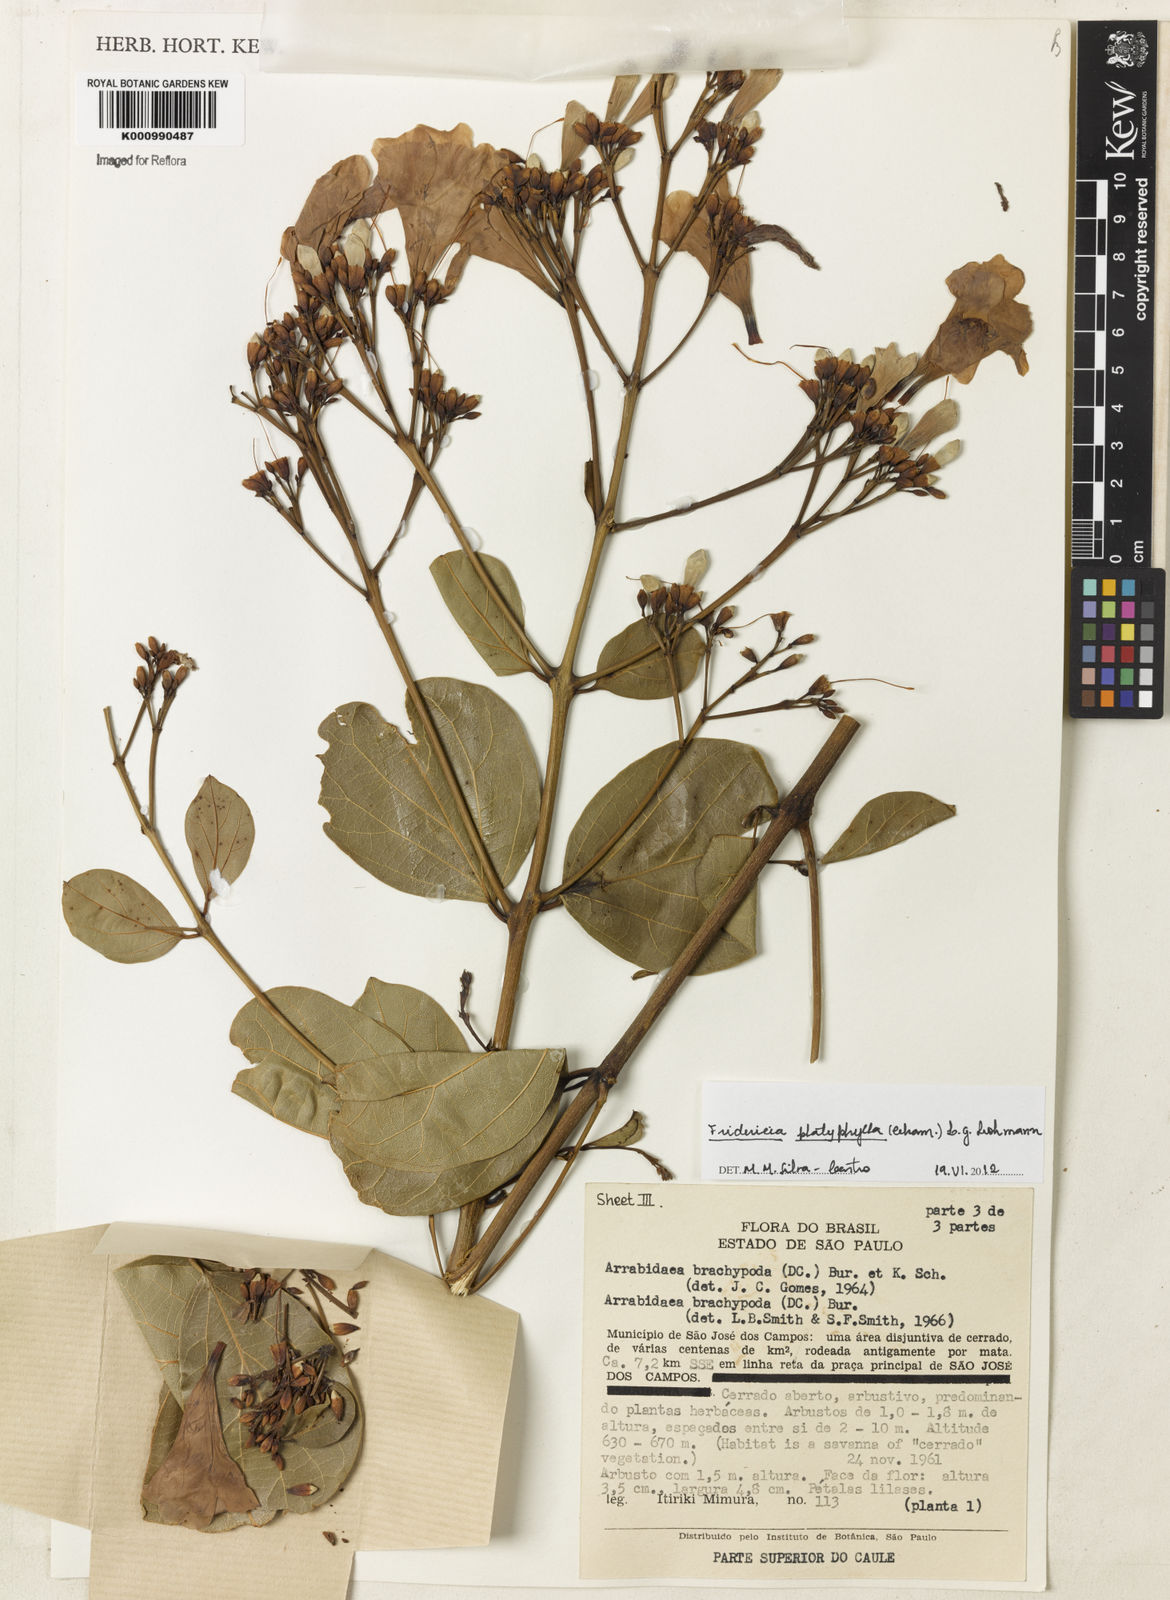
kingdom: Plantae
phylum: Tracheophyta
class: Magnoliopsida
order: Lamiales
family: Bignoniaceae
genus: Fridericia
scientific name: Fridericia platyphylla
